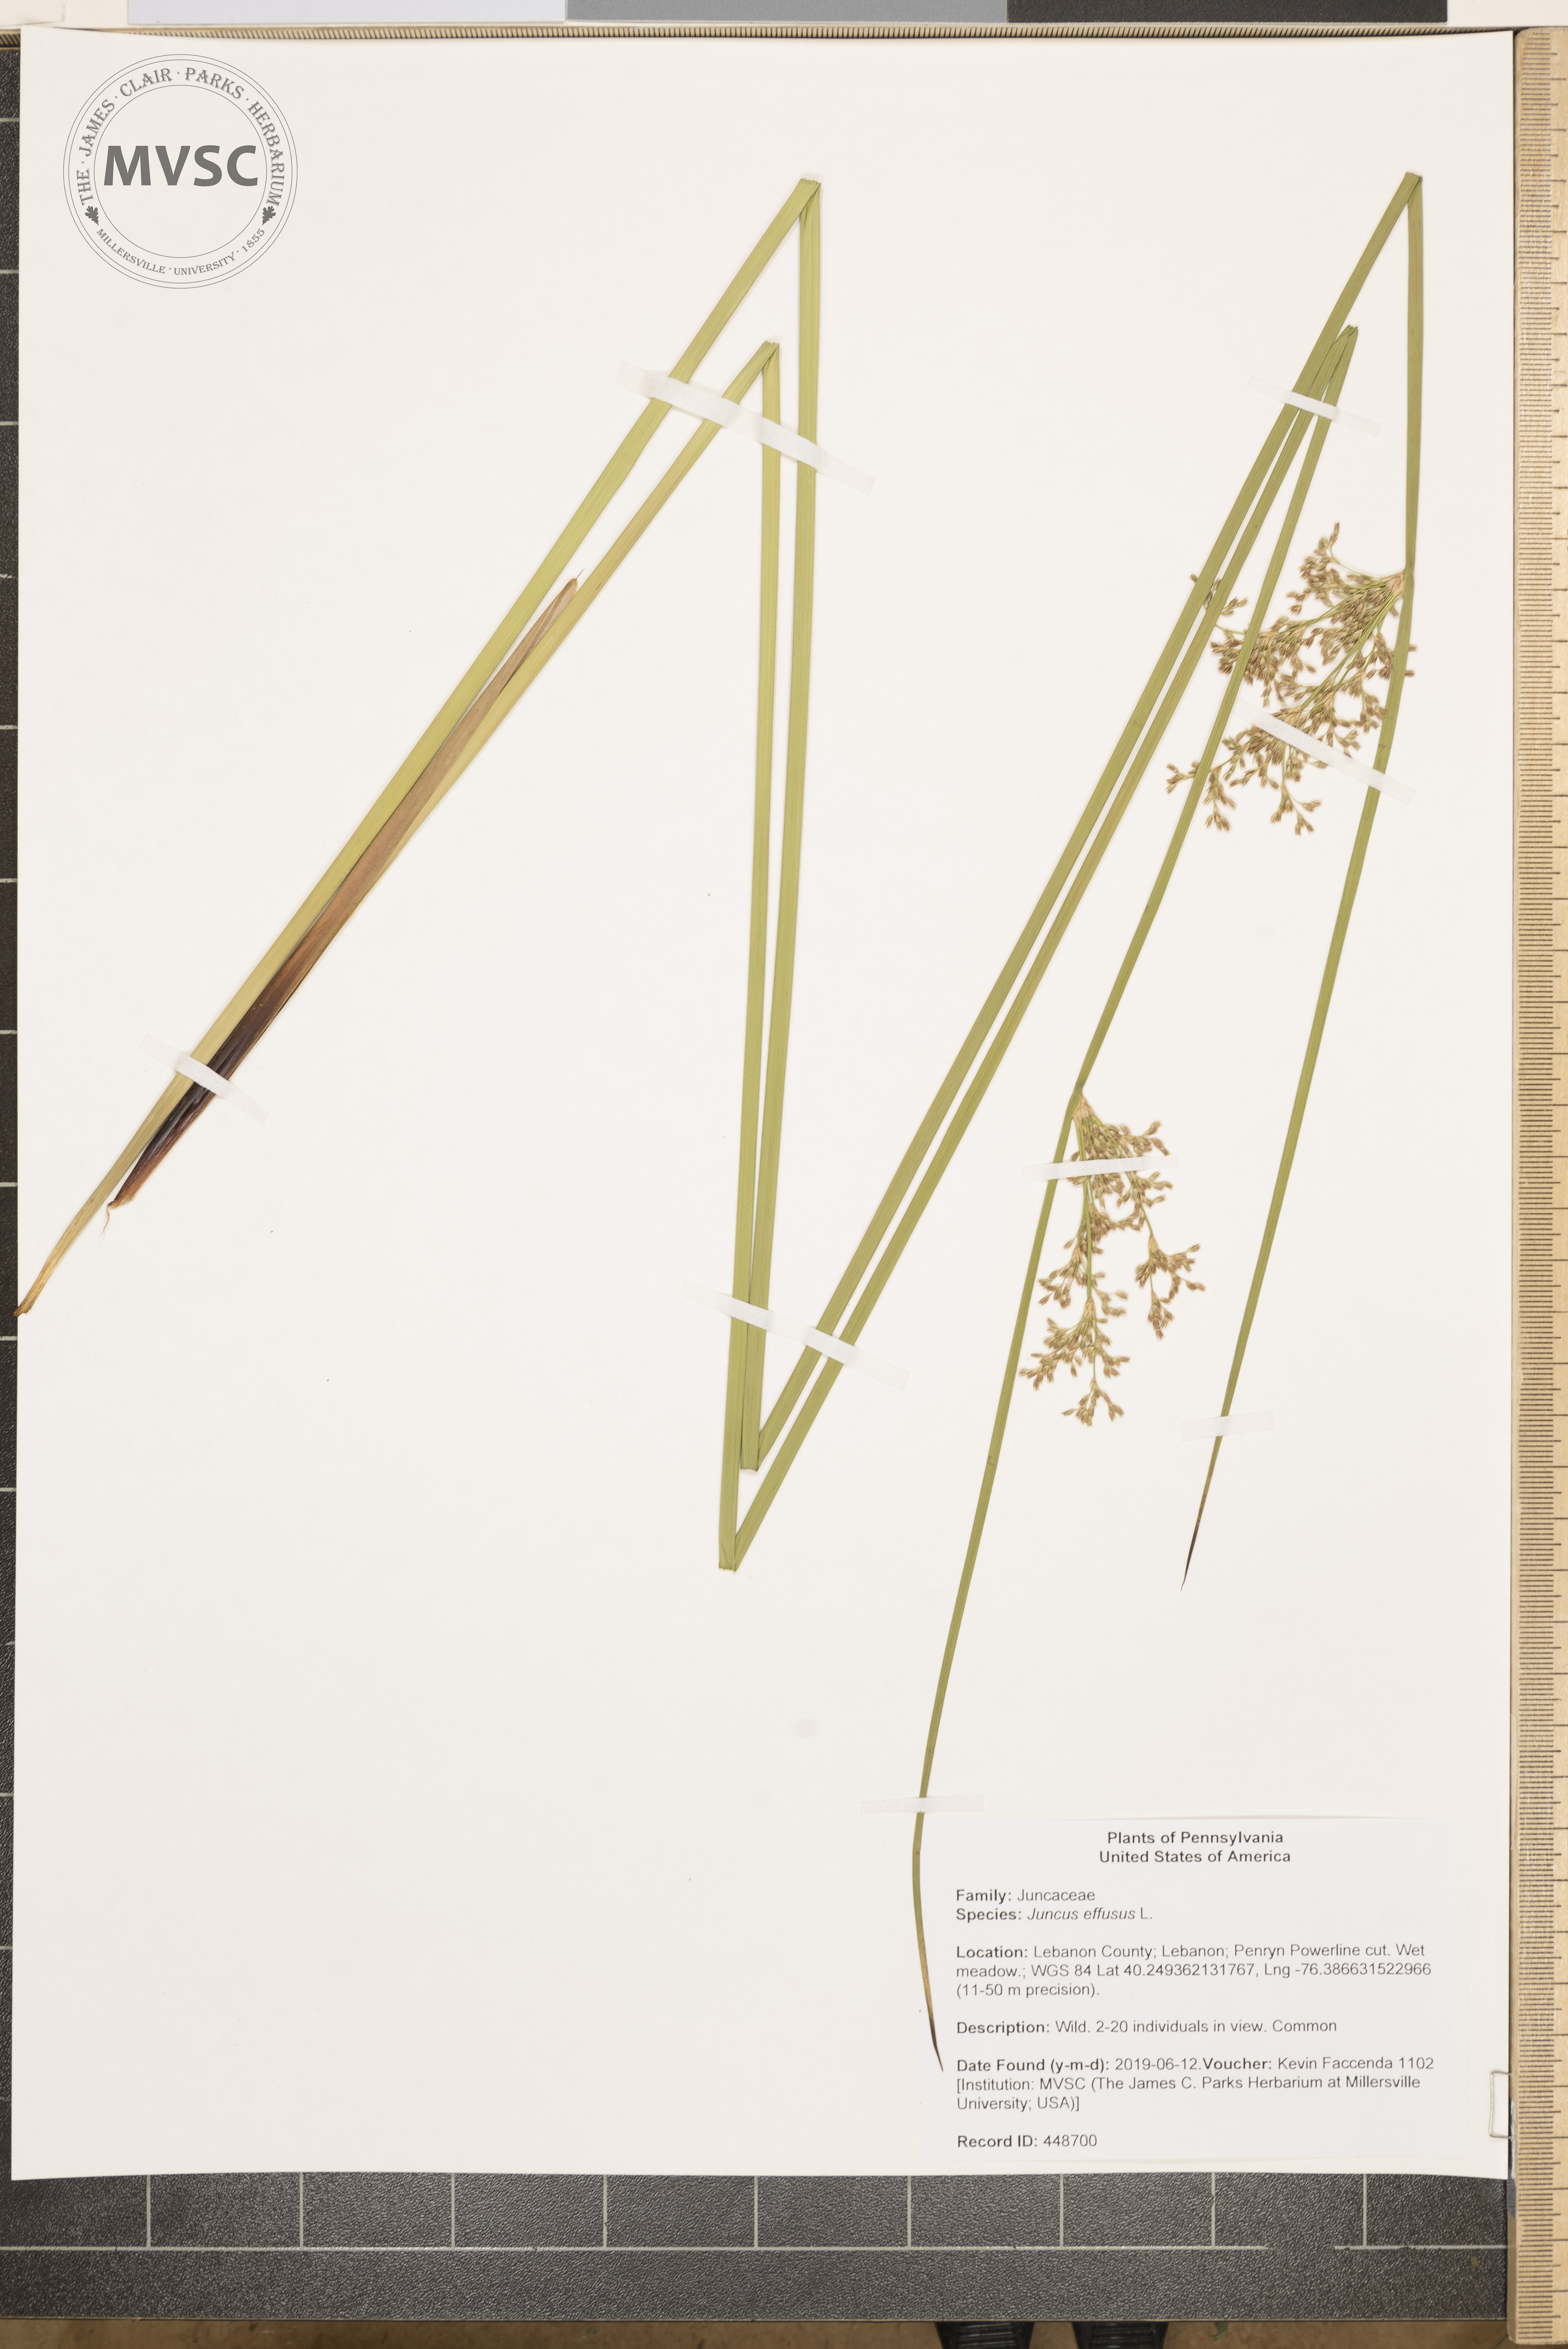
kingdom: Plantae
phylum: Tracheophyta
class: Liliopsida
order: Poales
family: Juncaceae
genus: Juncus
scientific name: Juncus effusus
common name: Soft rush
